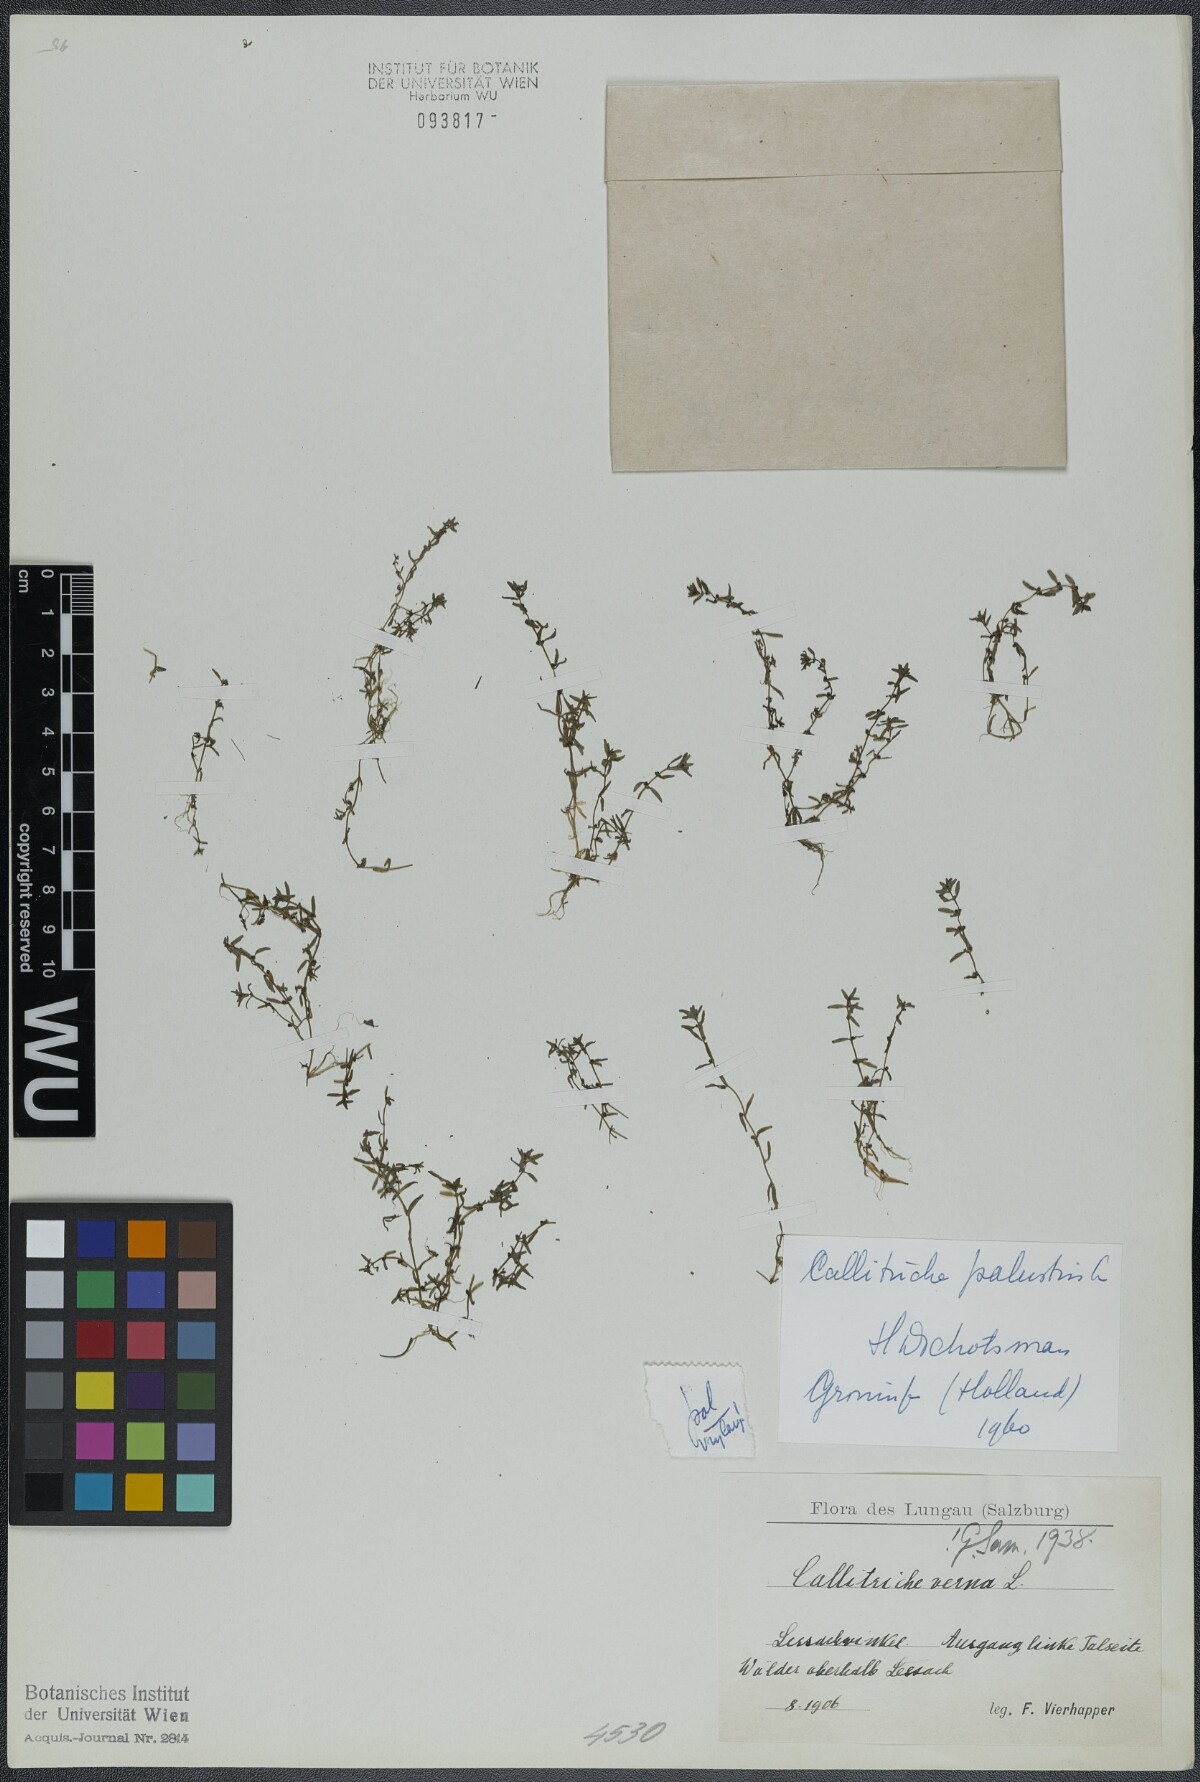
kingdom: Plantae
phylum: Tracheophyta
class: Magnoliopsida
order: Lamiales
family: Plantaginaceae
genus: Callitriche
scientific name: Callitriche palustris
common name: Spring water-starwort
